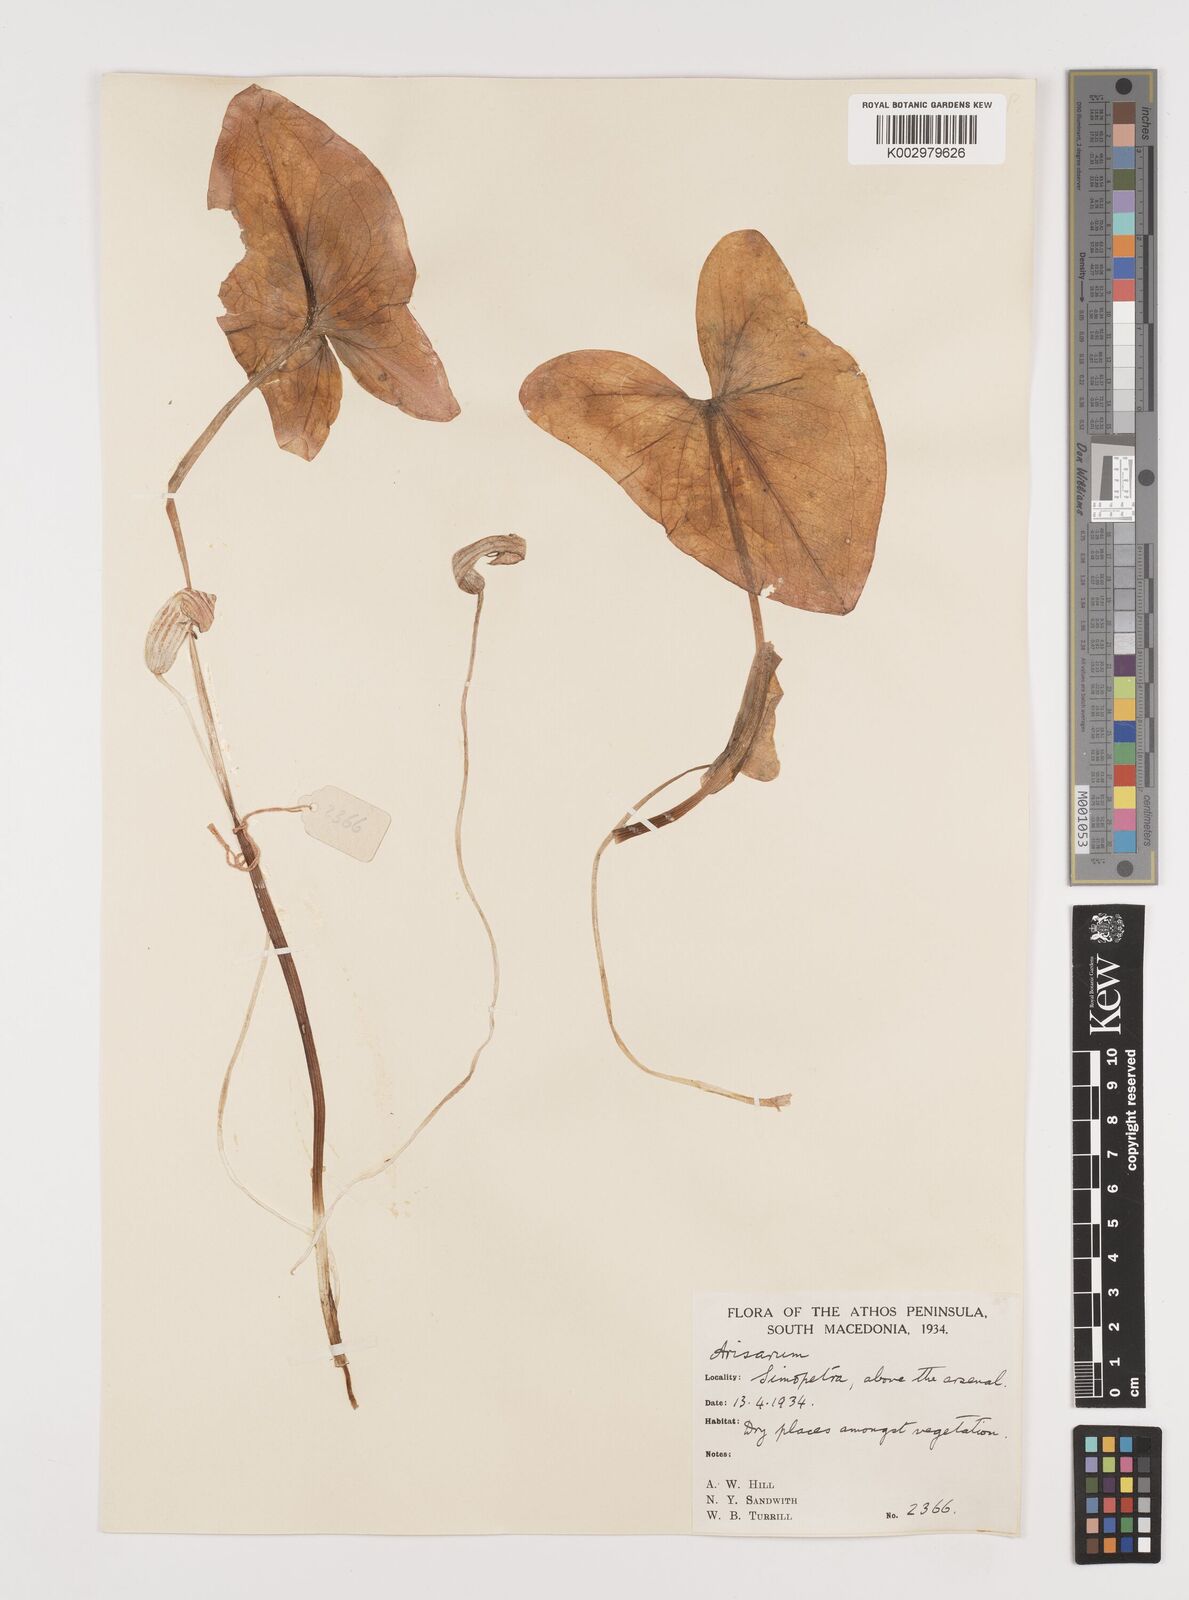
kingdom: Plantae
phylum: Tracheophyta
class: Liliopsida
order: Alismatales
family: Araceae
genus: Arisarum
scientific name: Arisarum vulgare
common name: Common arisarum
